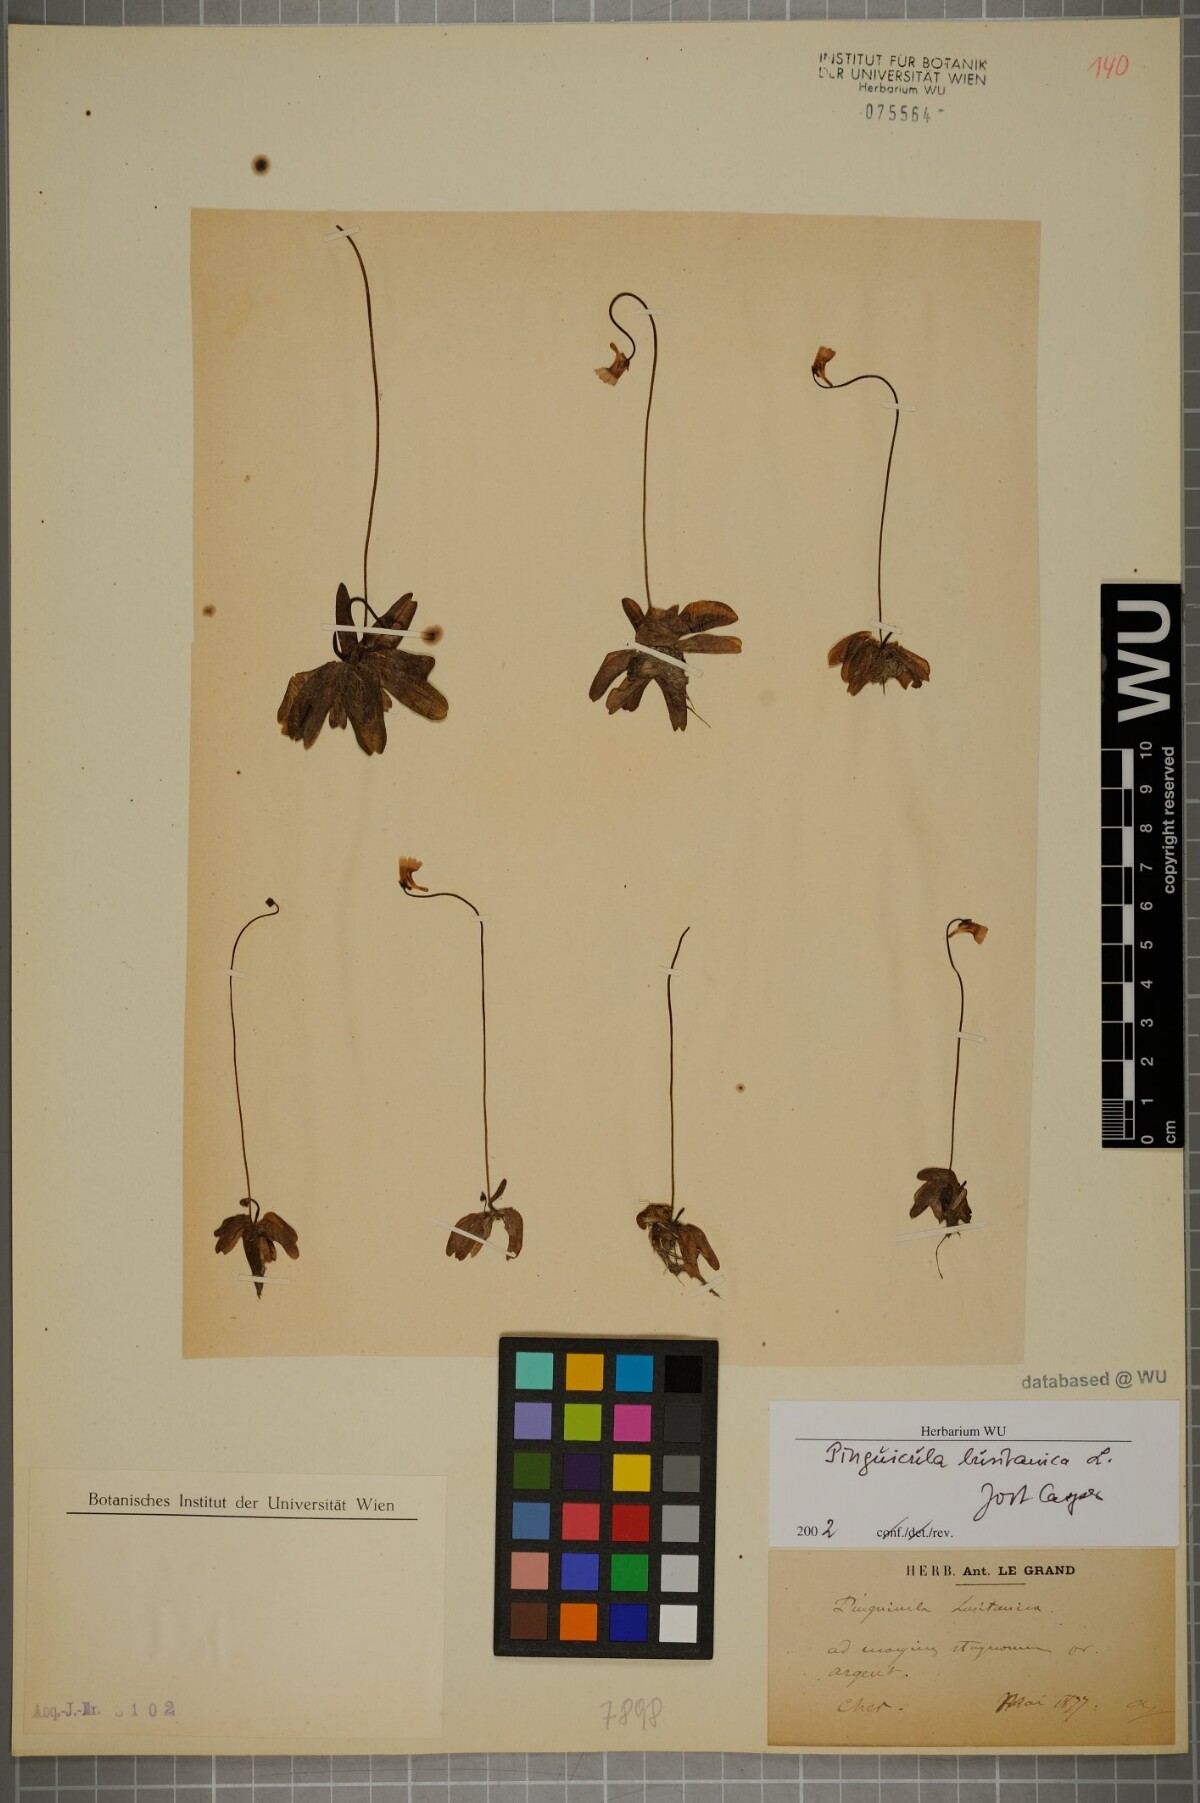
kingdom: Plantae
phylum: Tracheophyta
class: Magnoliopsida
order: Lamiales
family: Lentibulariaceae
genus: Pinguicula
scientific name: Pinguicula lusitanica
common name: Pale butterwort
